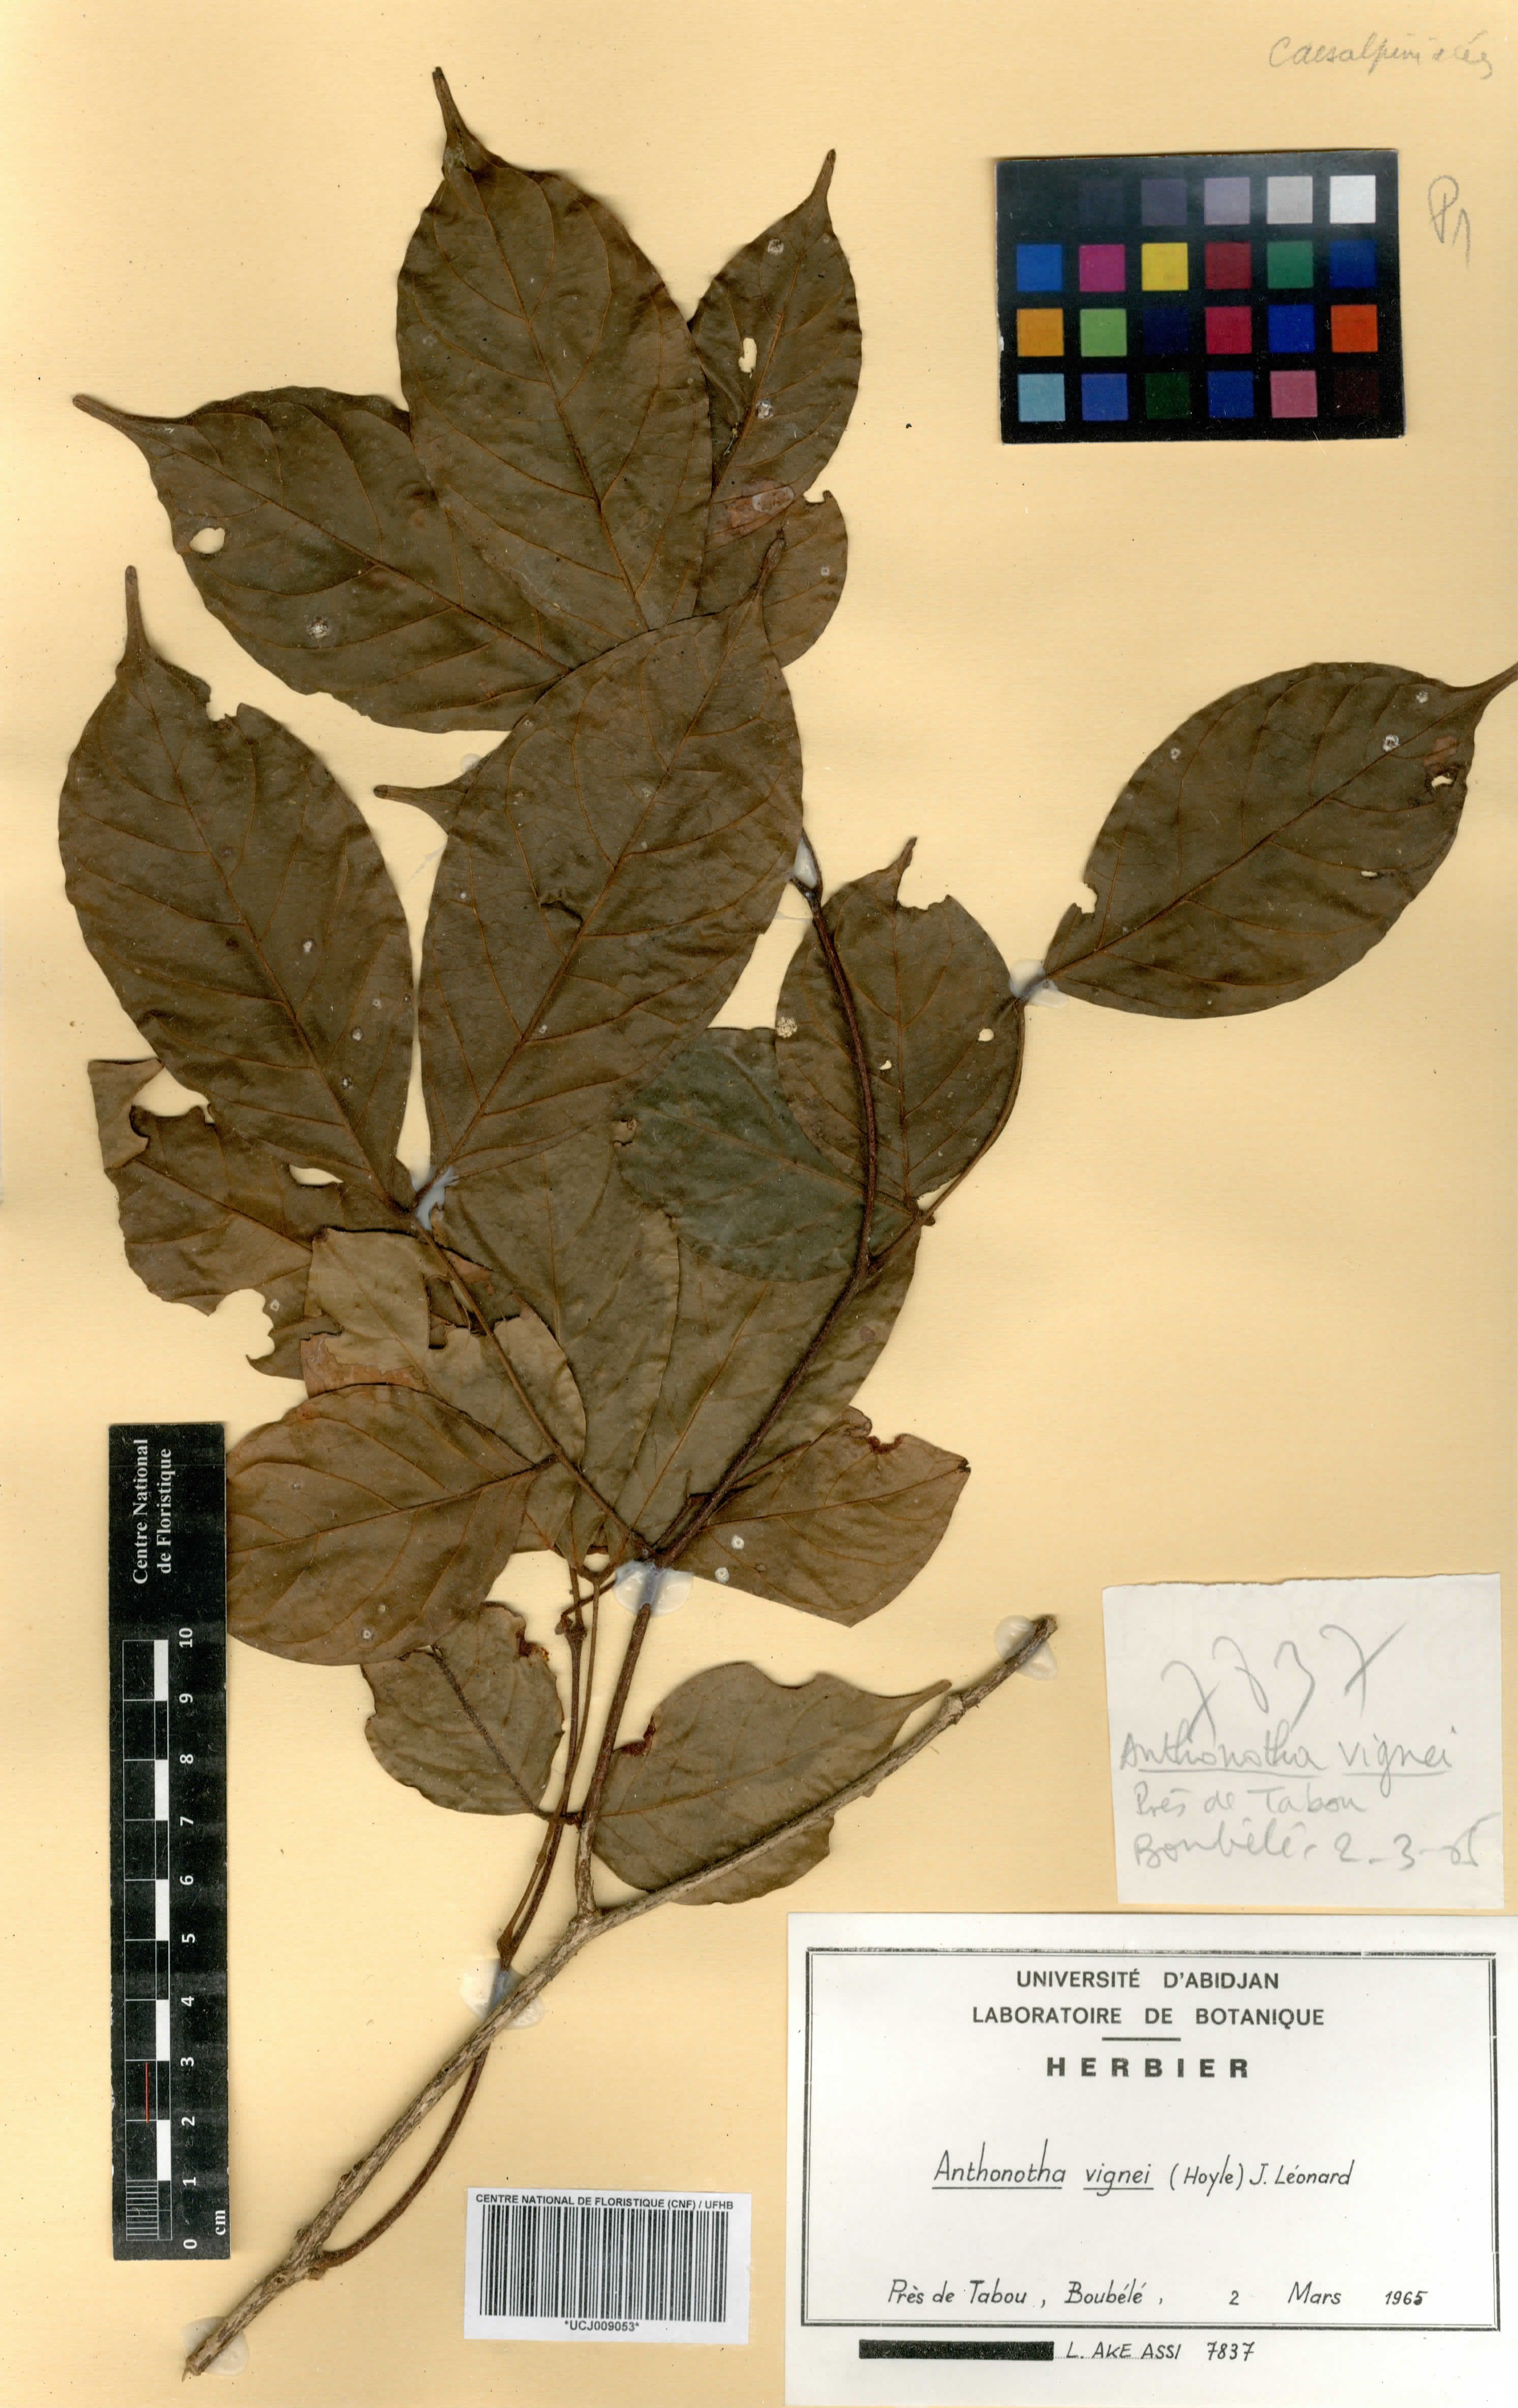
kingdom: Plantae
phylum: Tracheophyta
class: Magnoliopsida
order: Fabales
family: Fabaceae
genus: Englerodendron
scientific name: Englerodendron vignei
